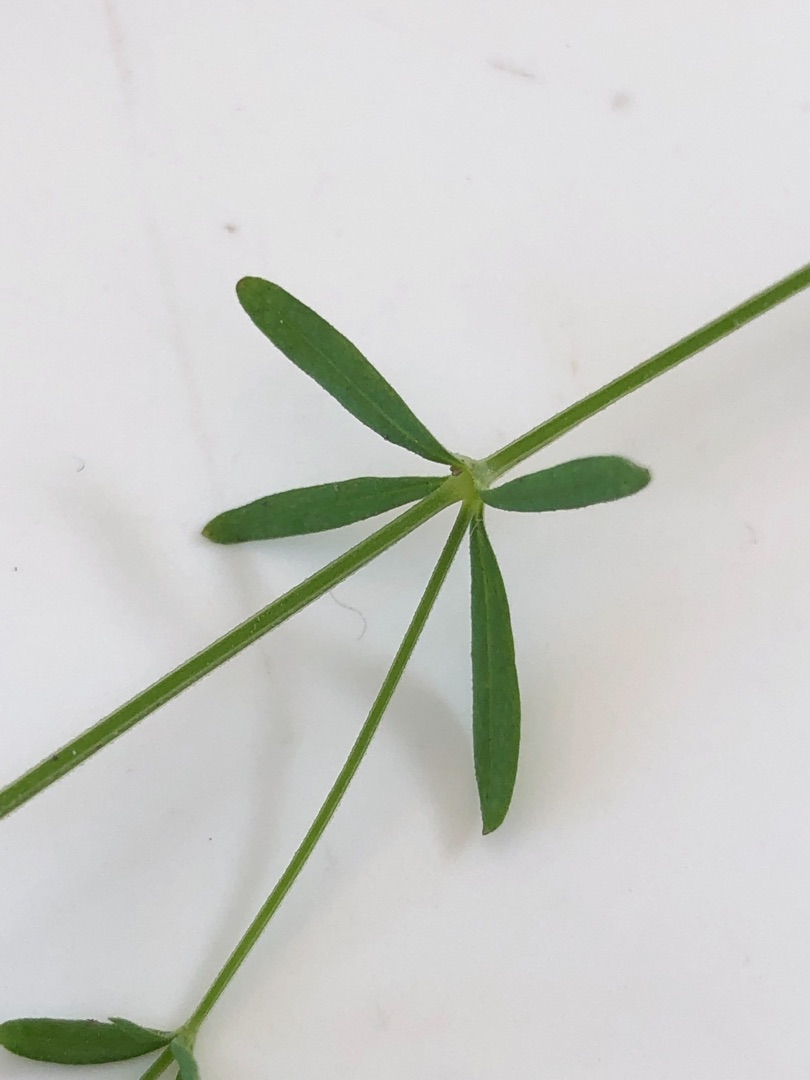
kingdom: Plantae
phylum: Tracheophyta
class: Magnoliopsida
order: Gentianales
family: Rubiaceae
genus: Galium
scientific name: Galium palustre
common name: Kær-snerre
